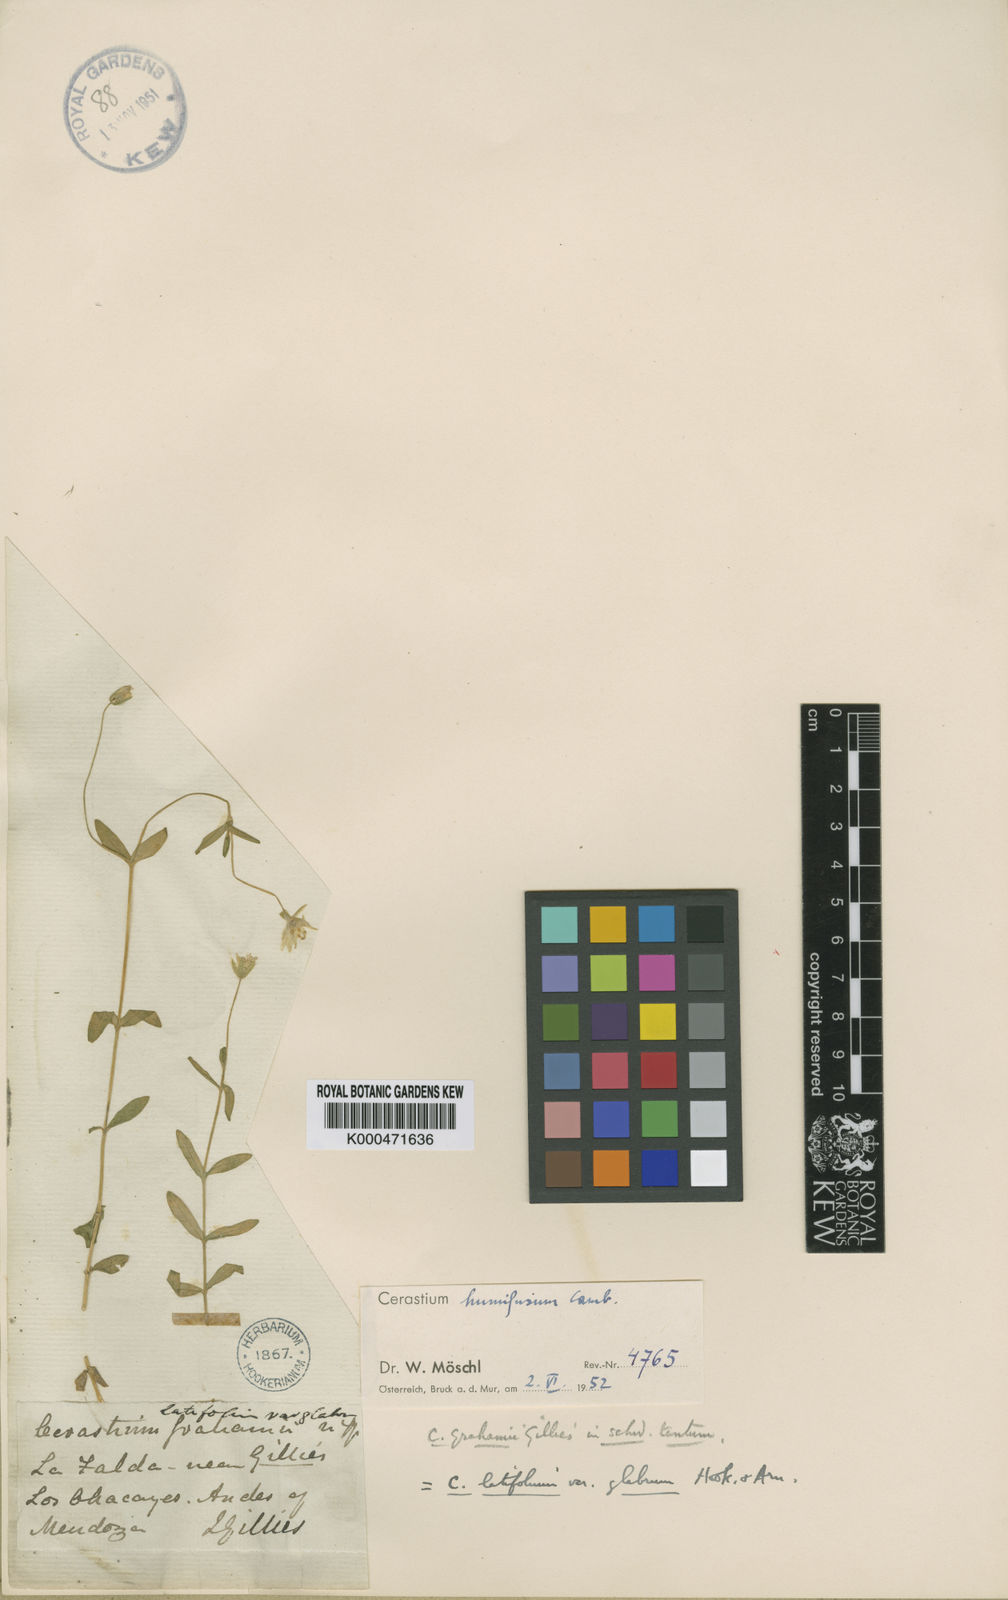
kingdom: Plantae
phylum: Tracheophyta
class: Magnoliopsida
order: Caryophyllales
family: Caryophyllaceae
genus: Cerastium
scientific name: Cerastium
